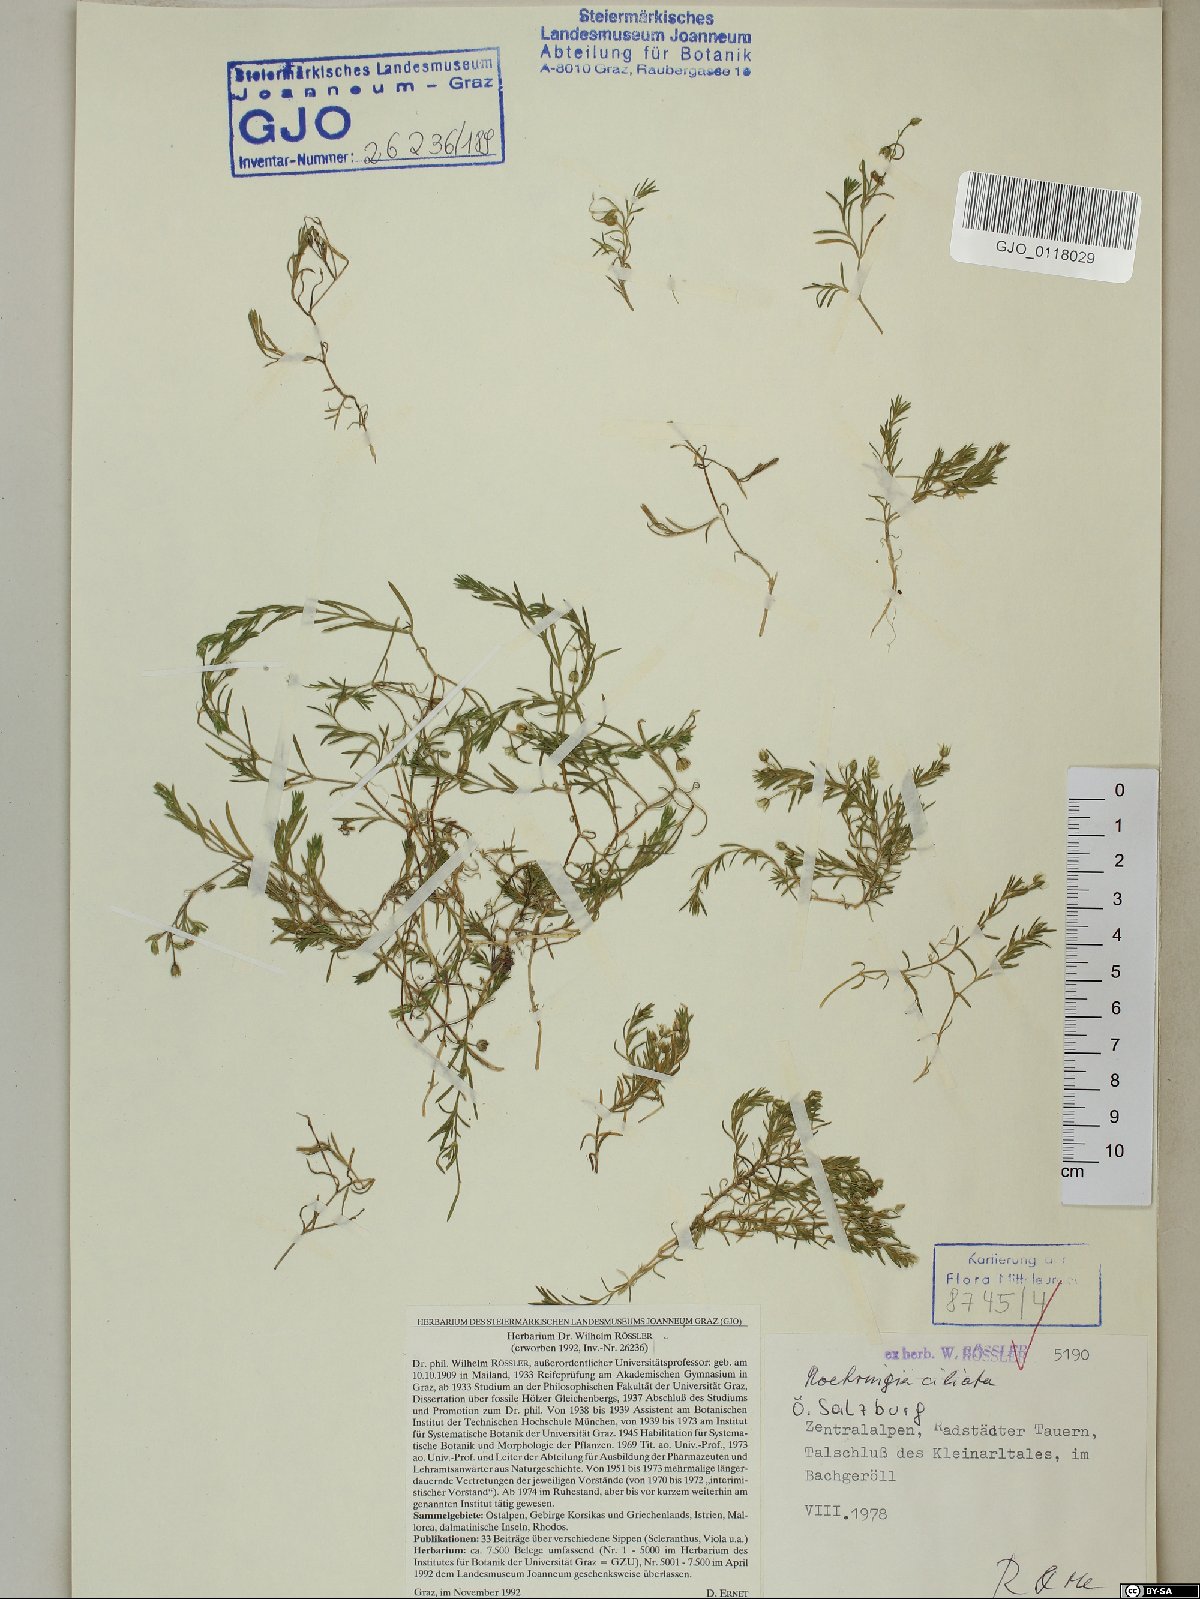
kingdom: Plantae
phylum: Tracheophyta
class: Magnoliopsida
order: Caryophyllales
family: Caryophyllaceae
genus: Moehringia
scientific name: Moehringia ciliata
